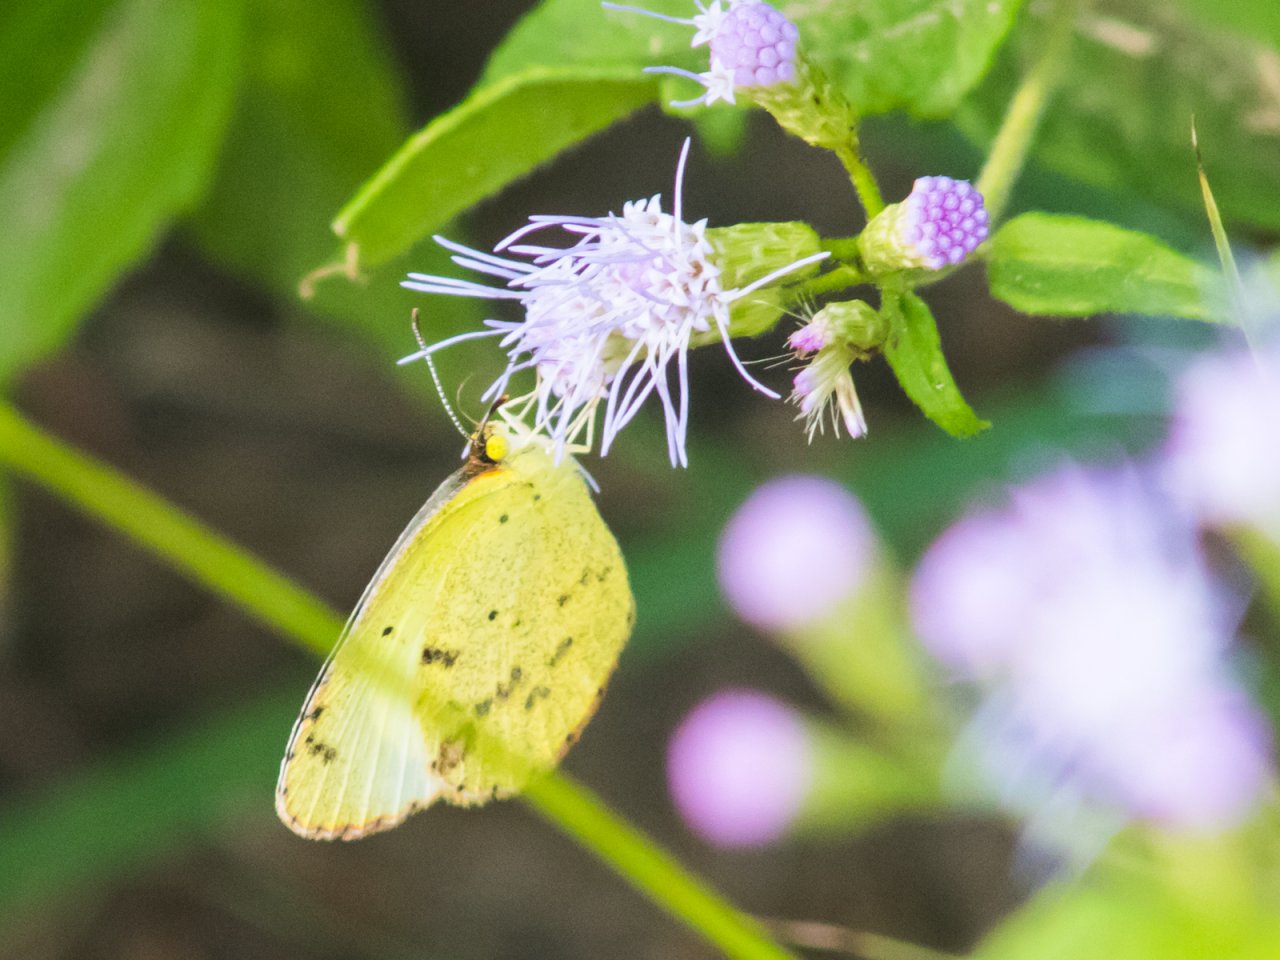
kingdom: Animalia
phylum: Arthropoda
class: Insecta
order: Lepidoptera
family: Pieridae
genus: Pyrisitia
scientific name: Pyrisitia lisa
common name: Little Yellow
